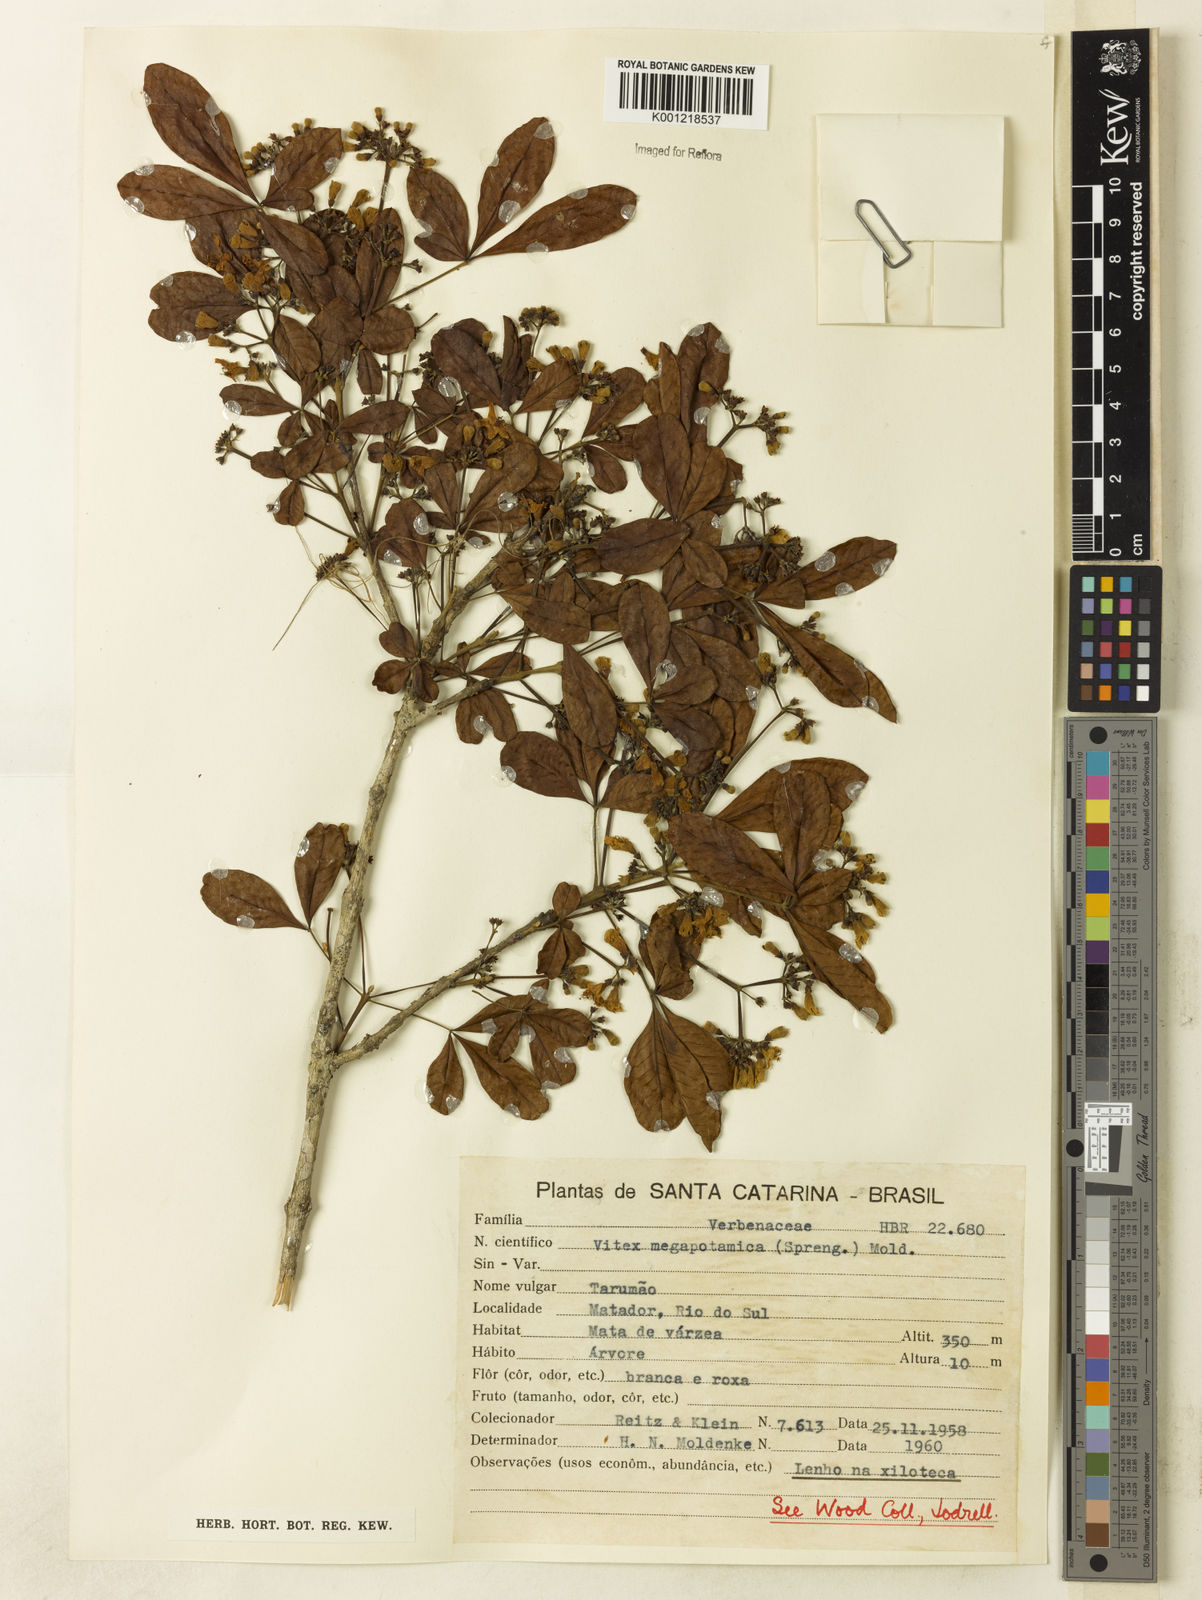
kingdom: Plantae
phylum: Tracheophyta
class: Magnoliopsida
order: Lamiales
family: Lamiaceae
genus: Vitex
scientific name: Vitex megapotamica
